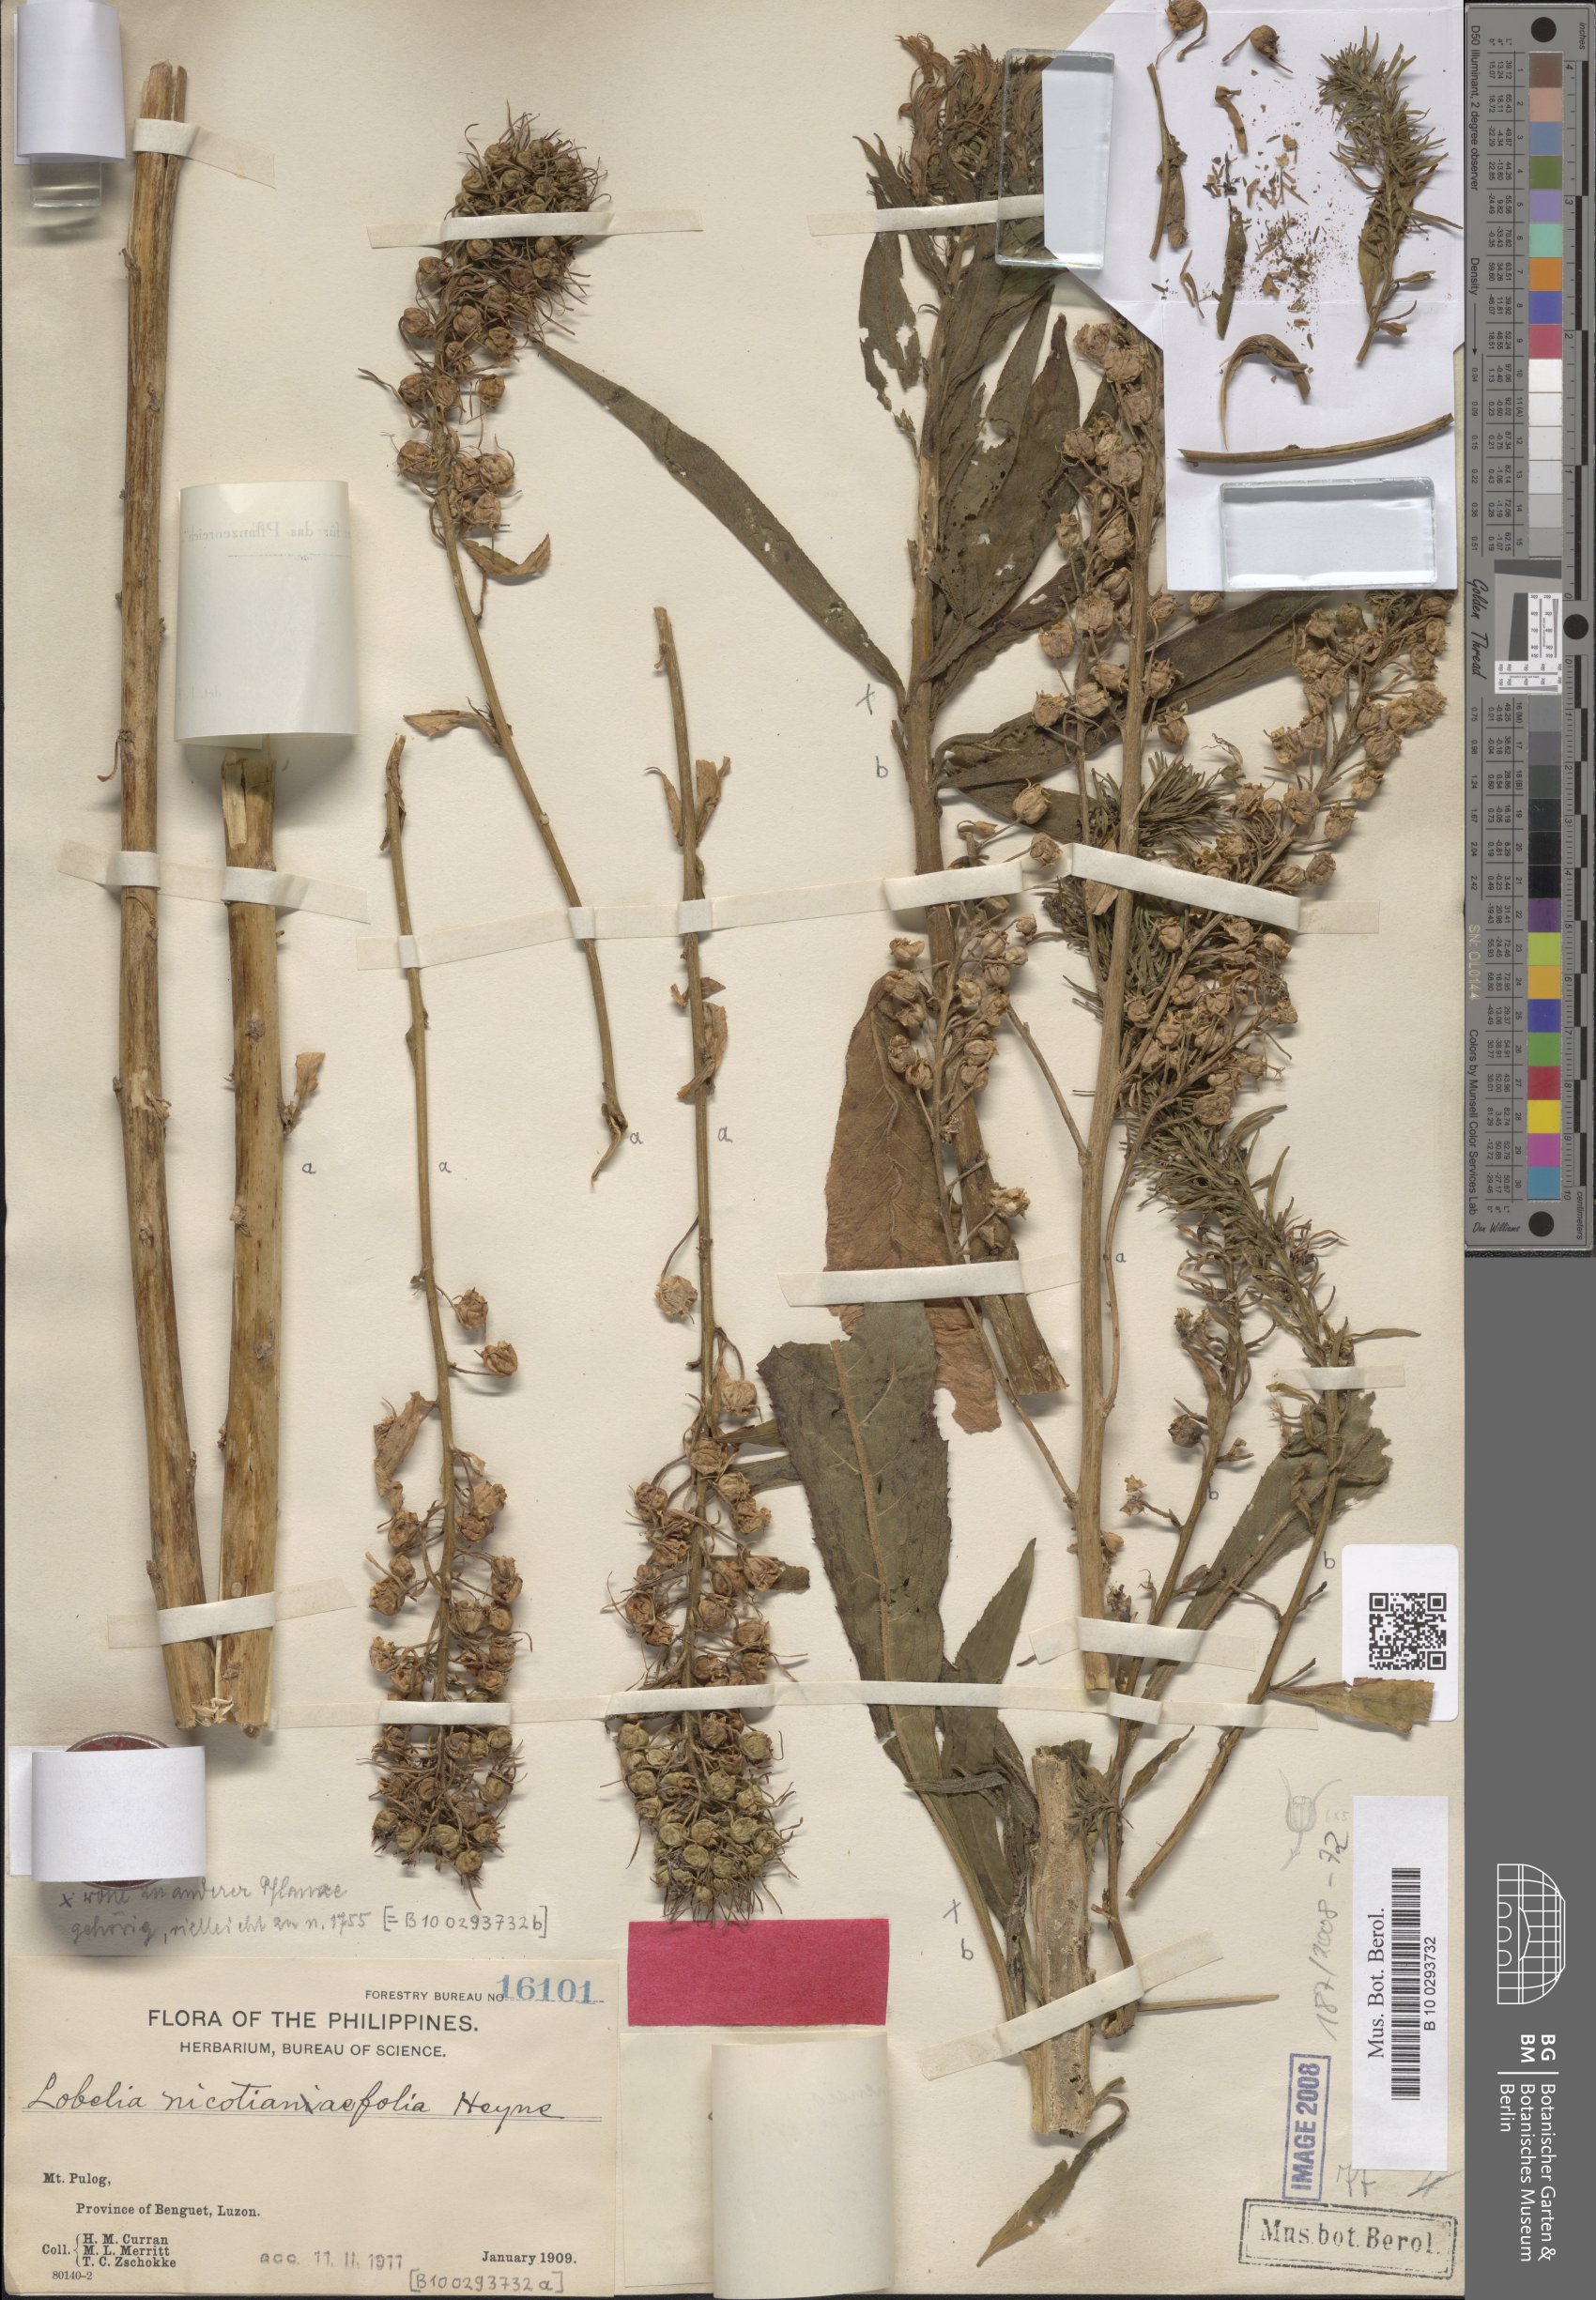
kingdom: Plantae
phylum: Tracheophyta
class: Magnoliopsida
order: Asterales
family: Campanulaceae
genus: Lobelia
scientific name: Lobelia philippinensis
